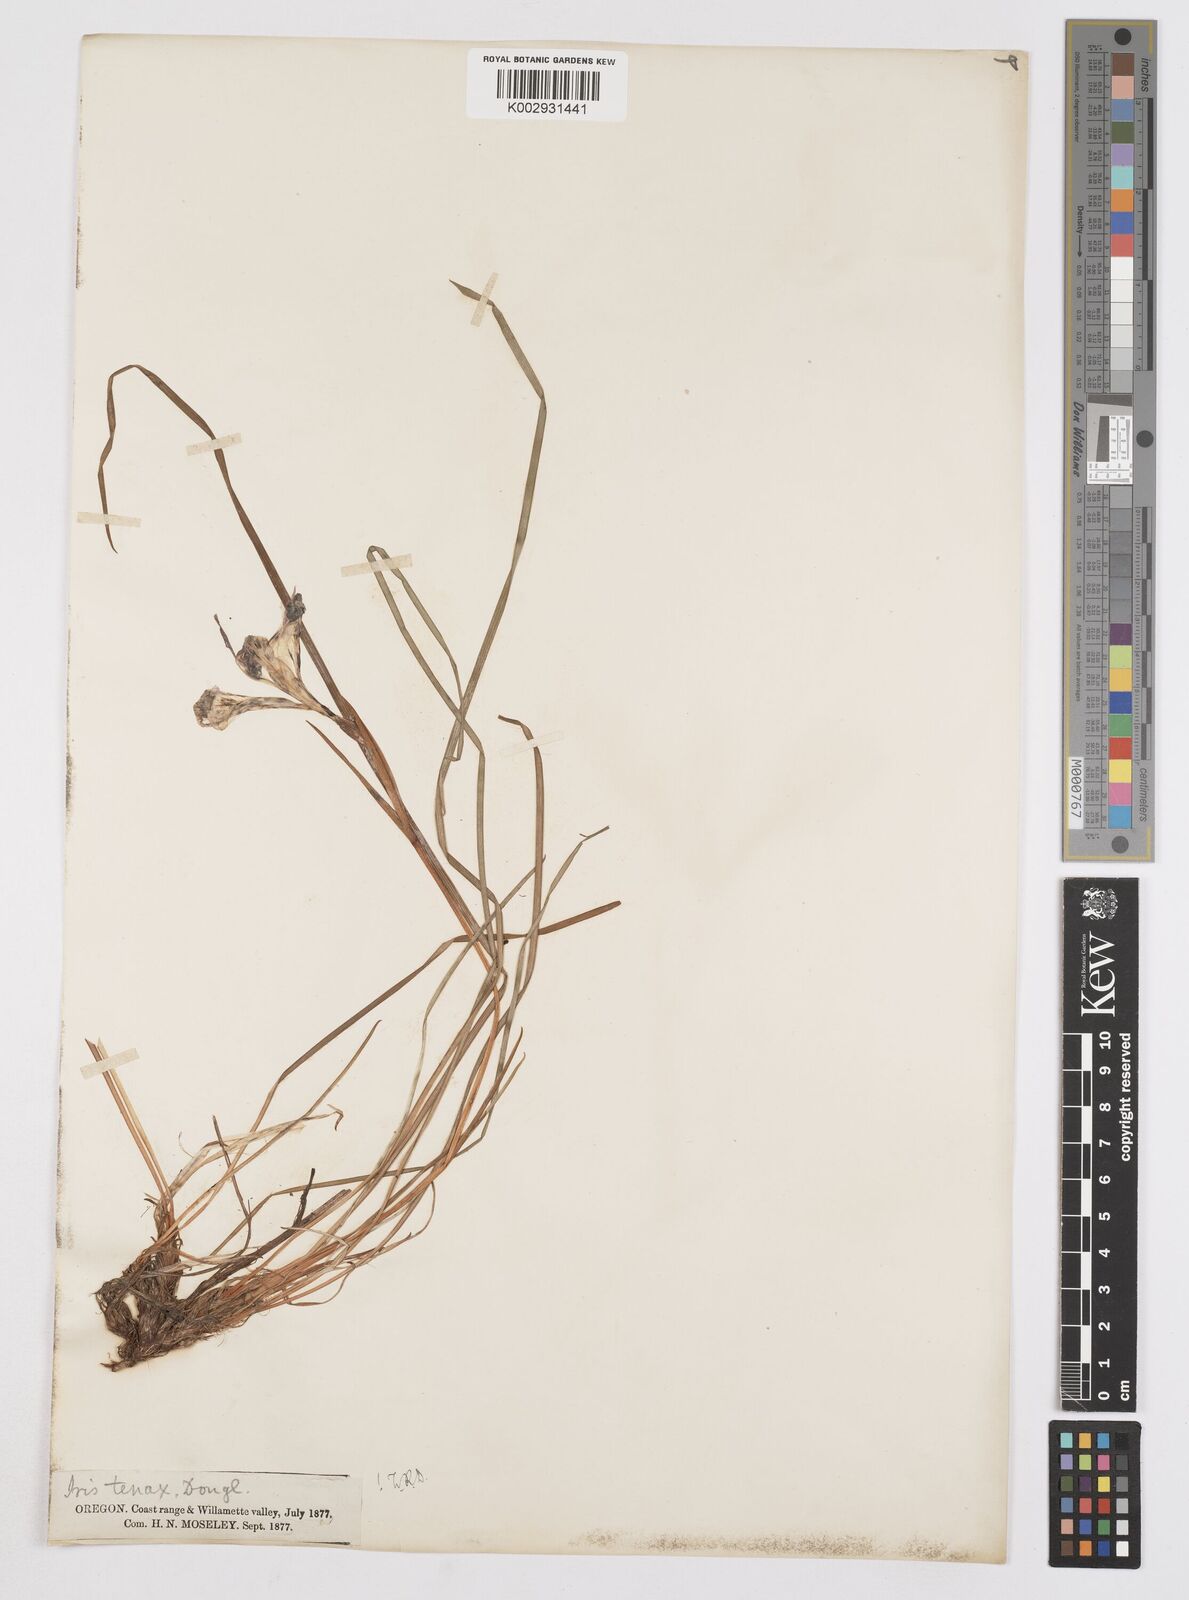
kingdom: Plantae
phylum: Tracheophyta
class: Liliopsida
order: Asparagales
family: Iridaceae
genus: Iris
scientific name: Iris tenax
